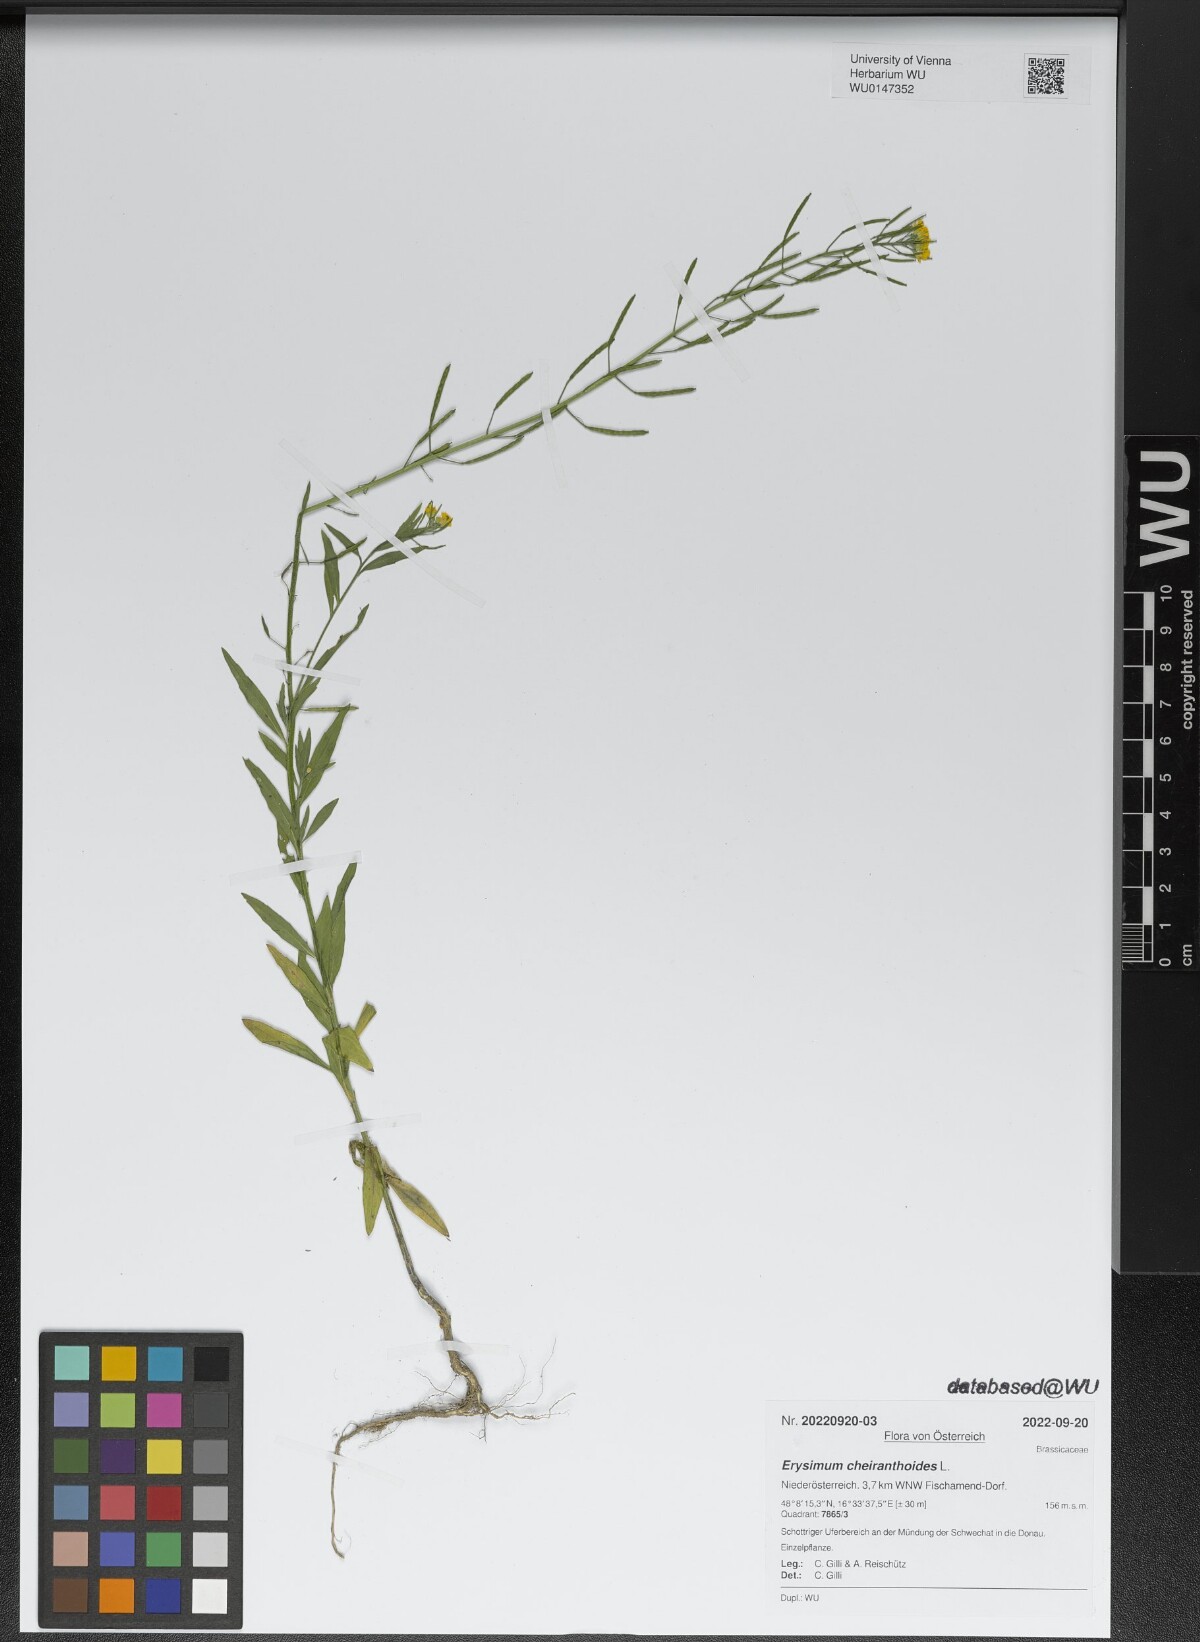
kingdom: Plantae
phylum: Tracheophyta
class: Magnoliopsida
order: Brassicales
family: Brassicaceae
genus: Erysimum
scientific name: Erysimum cheiranthoides
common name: Treacle mustard
